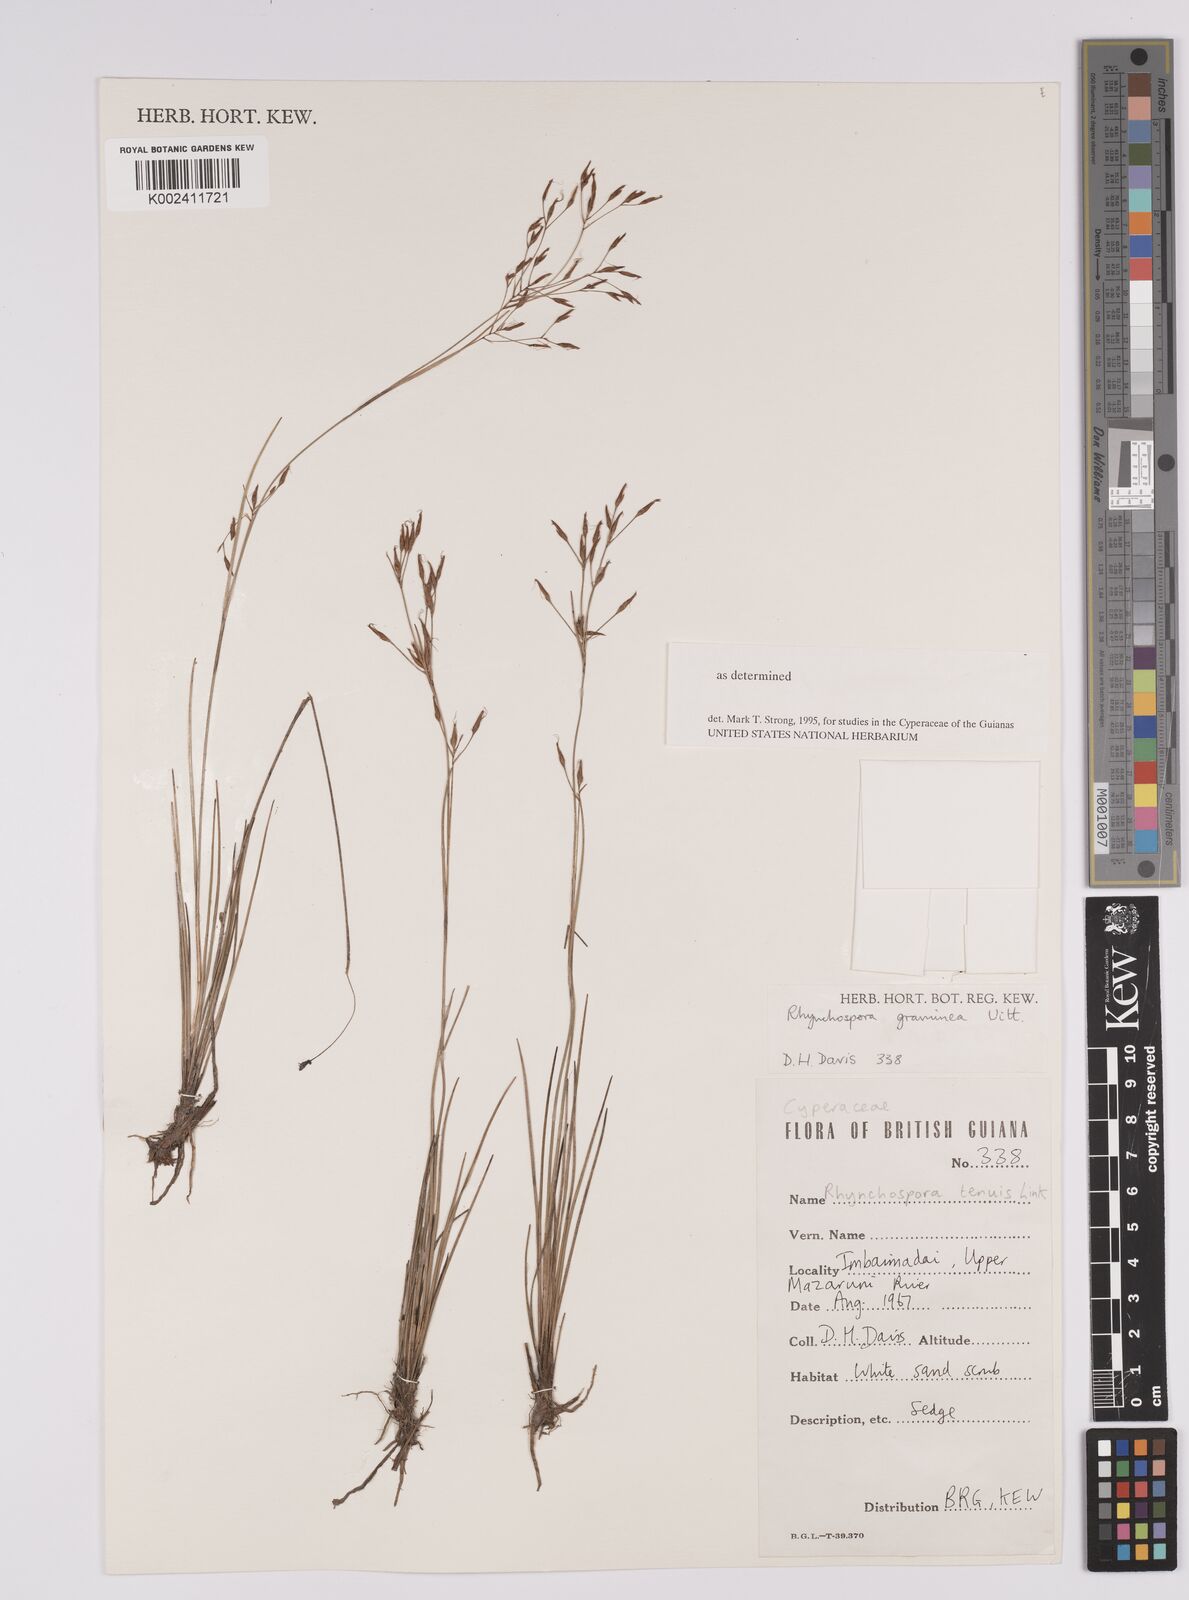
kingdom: Plantae
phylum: Tracheophyta
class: Liliopsida
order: Poales
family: Cyperaceae
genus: Rhynchospora
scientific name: Rhynchospora spruceana
